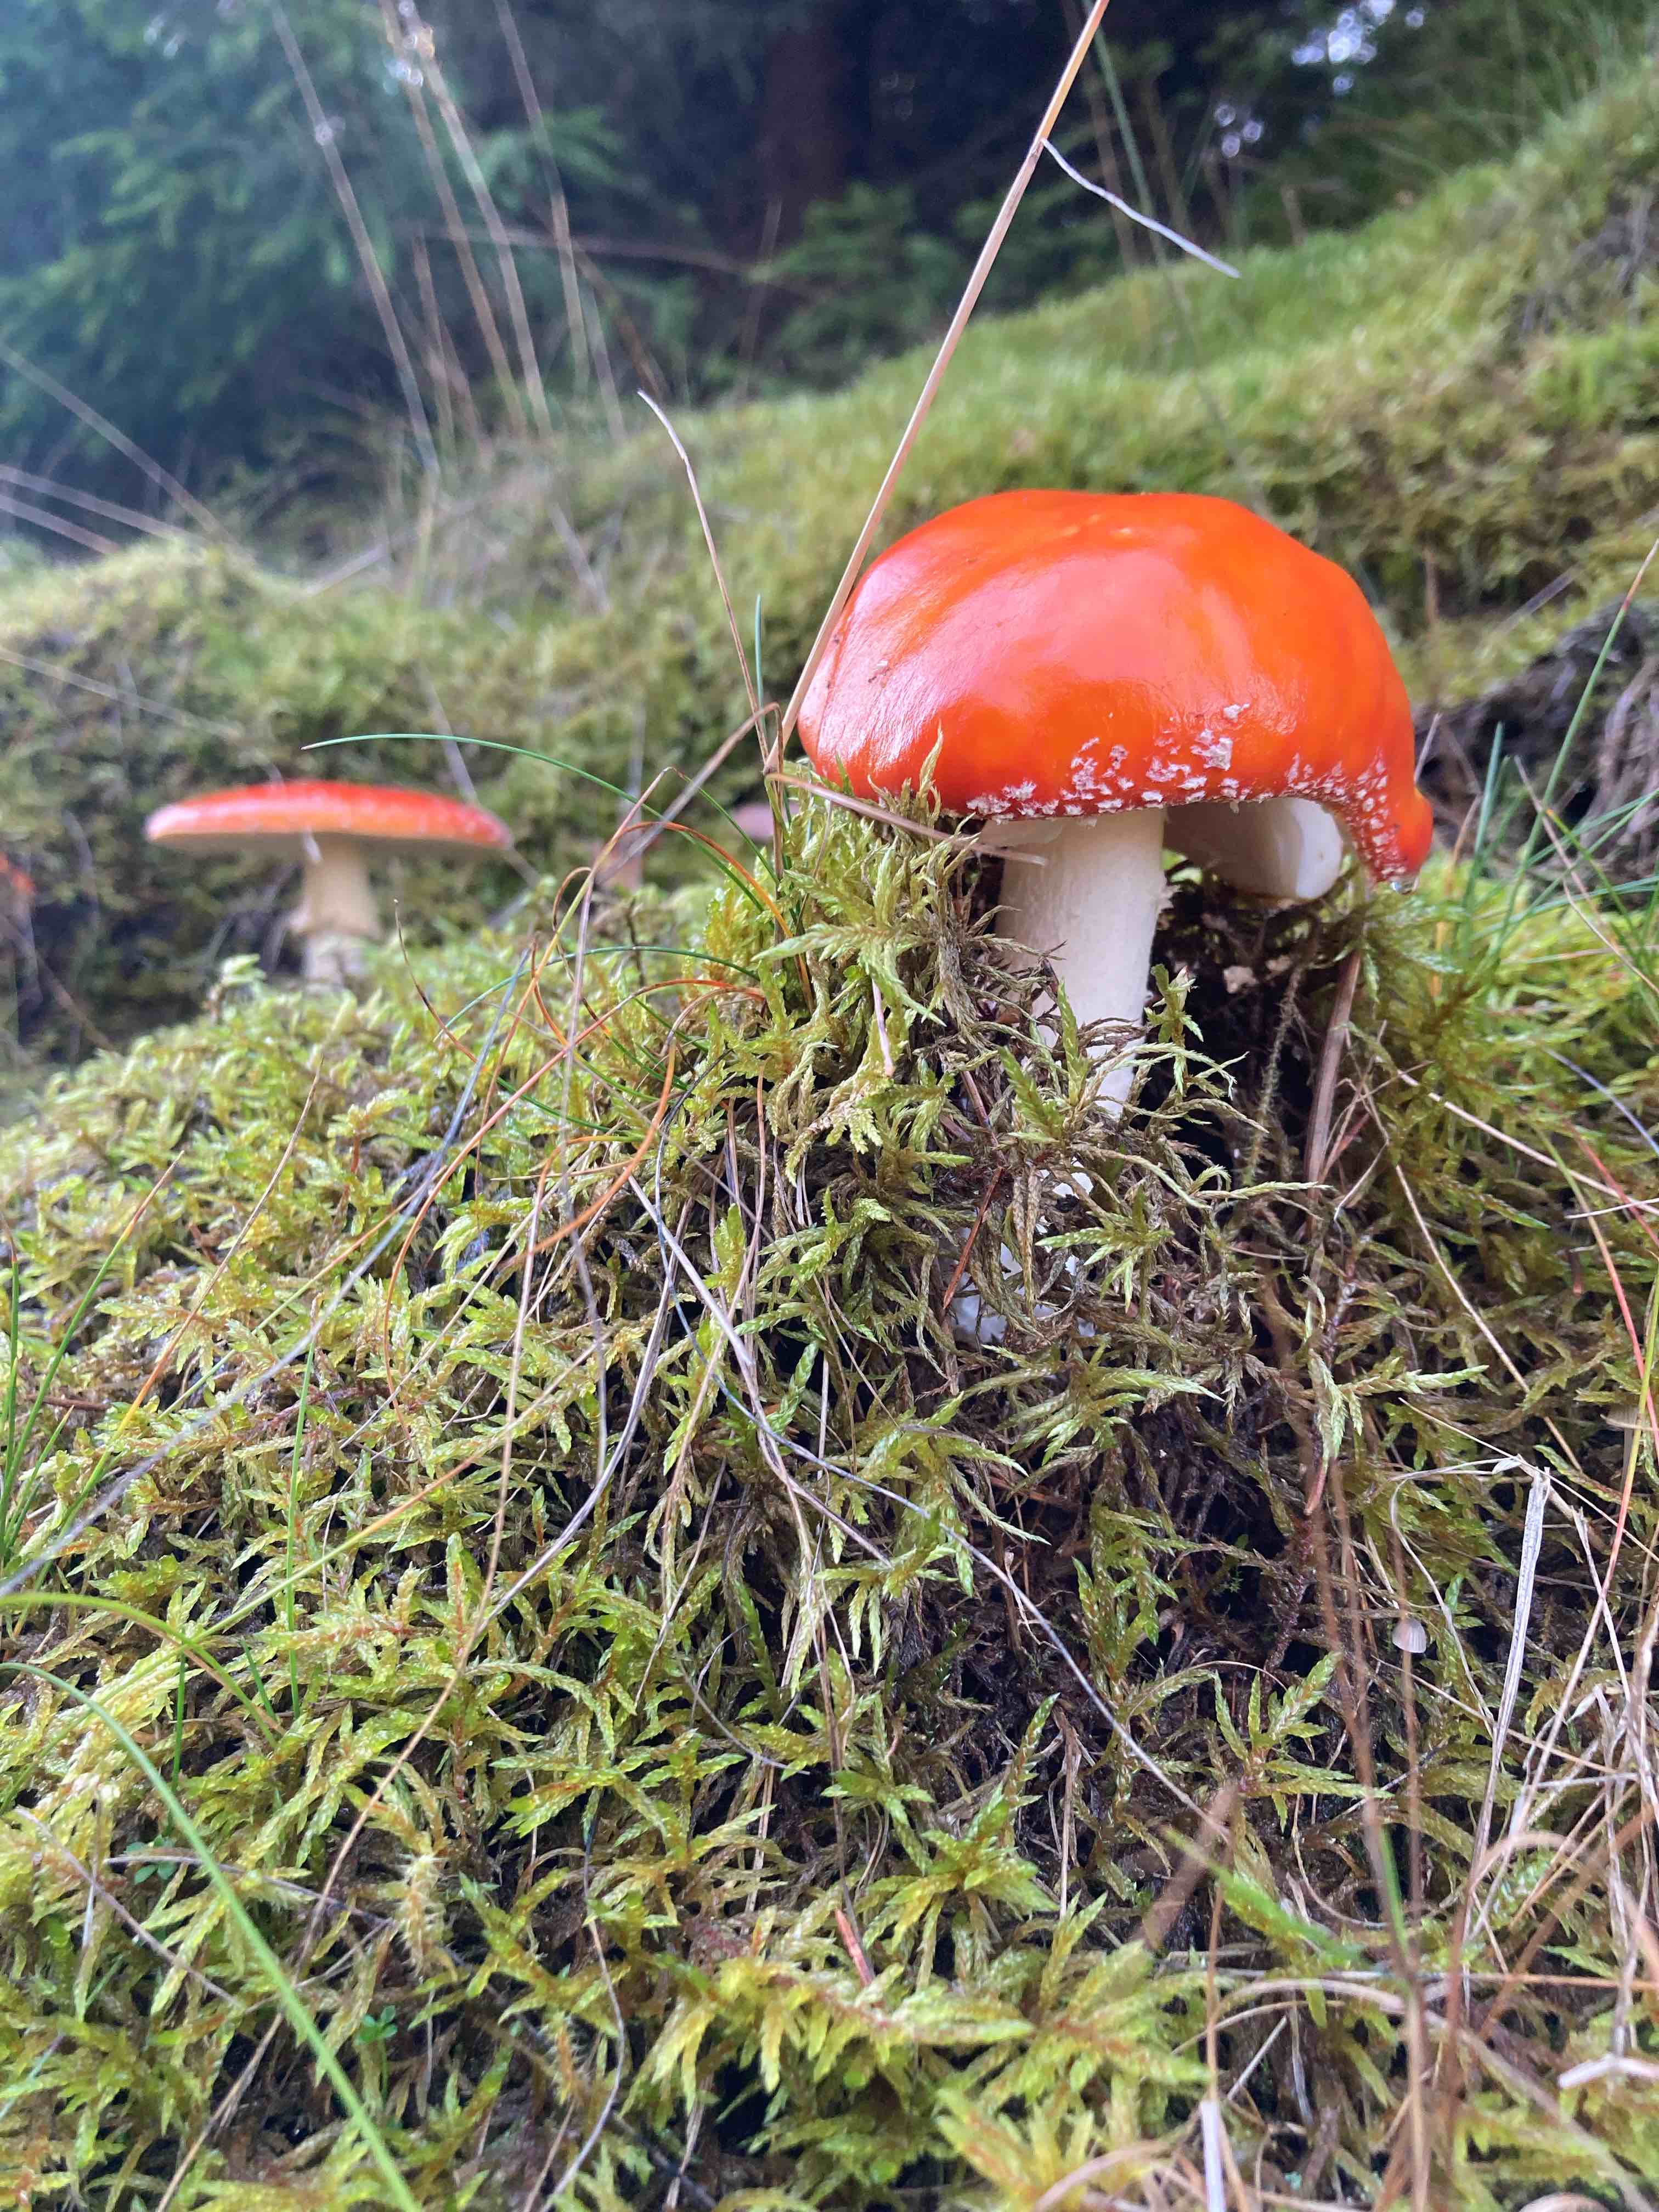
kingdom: Fungi
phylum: Basidiomycota
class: Agaricomycetes
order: Agaricales
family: Amanitaceae
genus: Amanita
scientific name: Amanita muscaria
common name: rød fluesvamp
